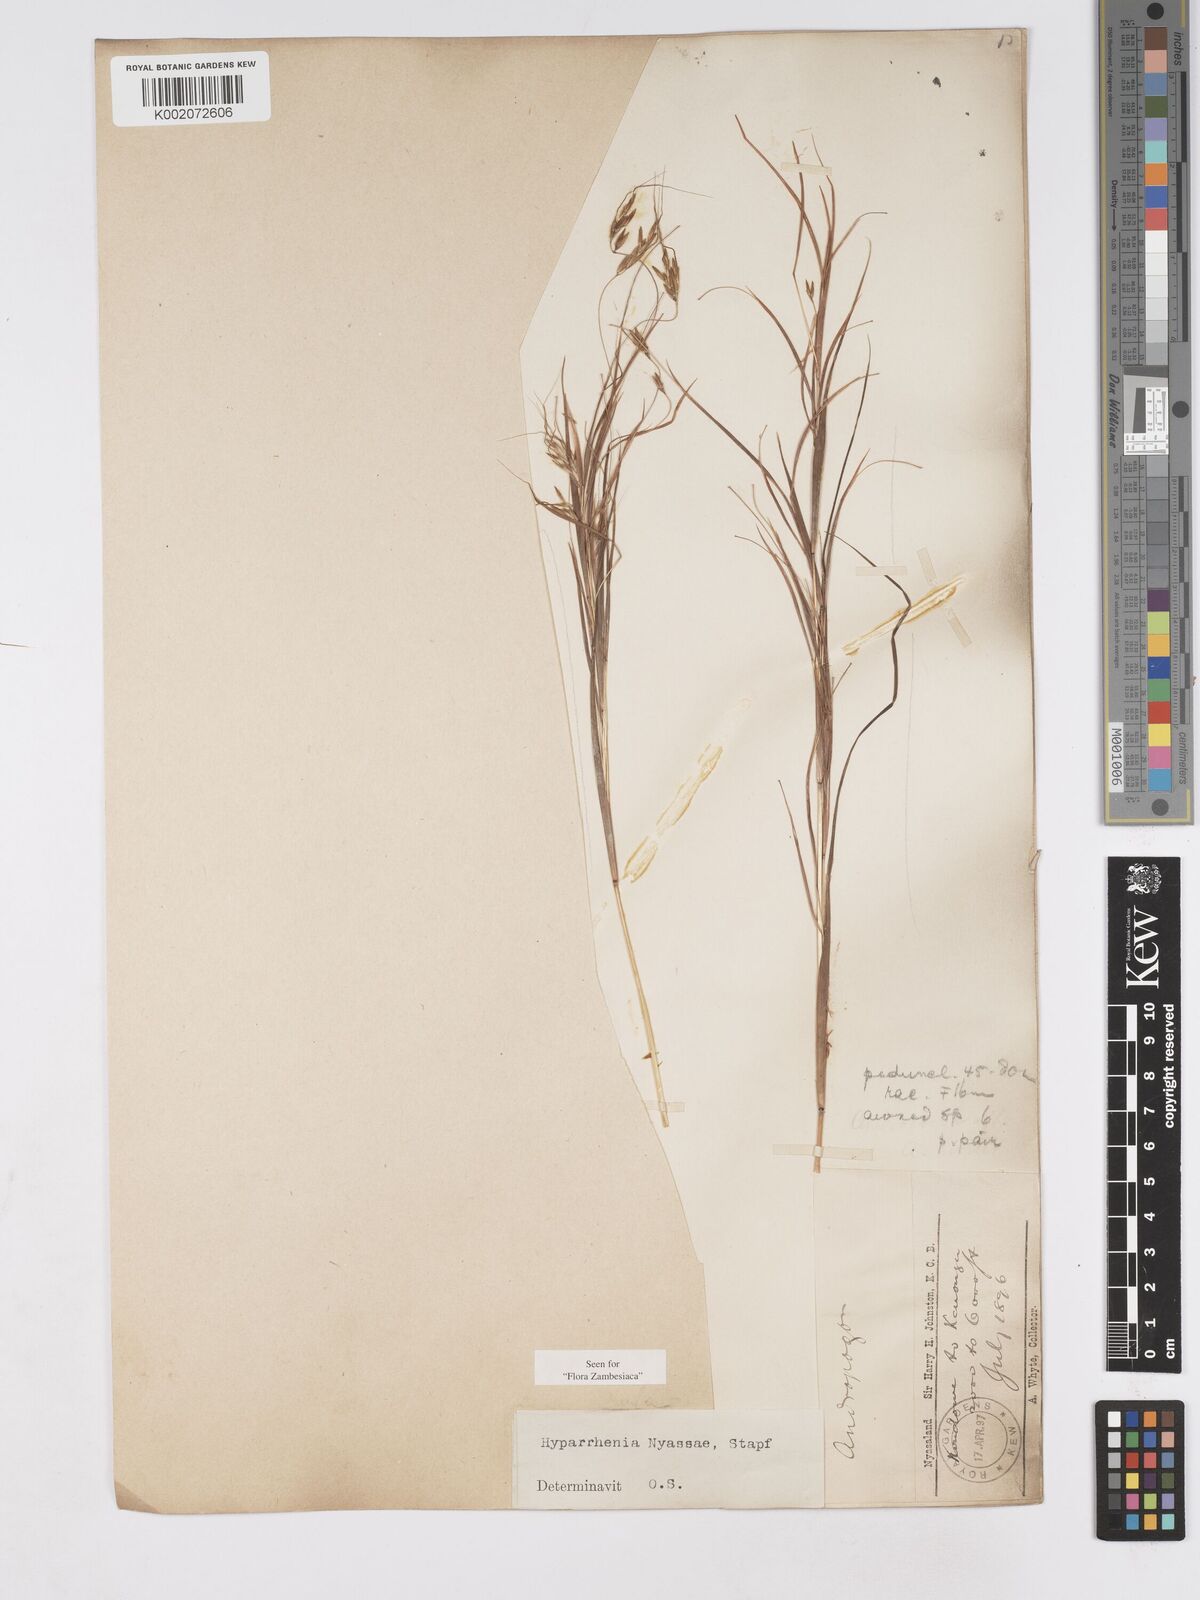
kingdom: Plantae
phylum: Tracheophyta
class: Liliopsida
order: Poales
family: Poaceae
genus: Hyparrhenia
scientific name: Hyparrhenia nyassae
